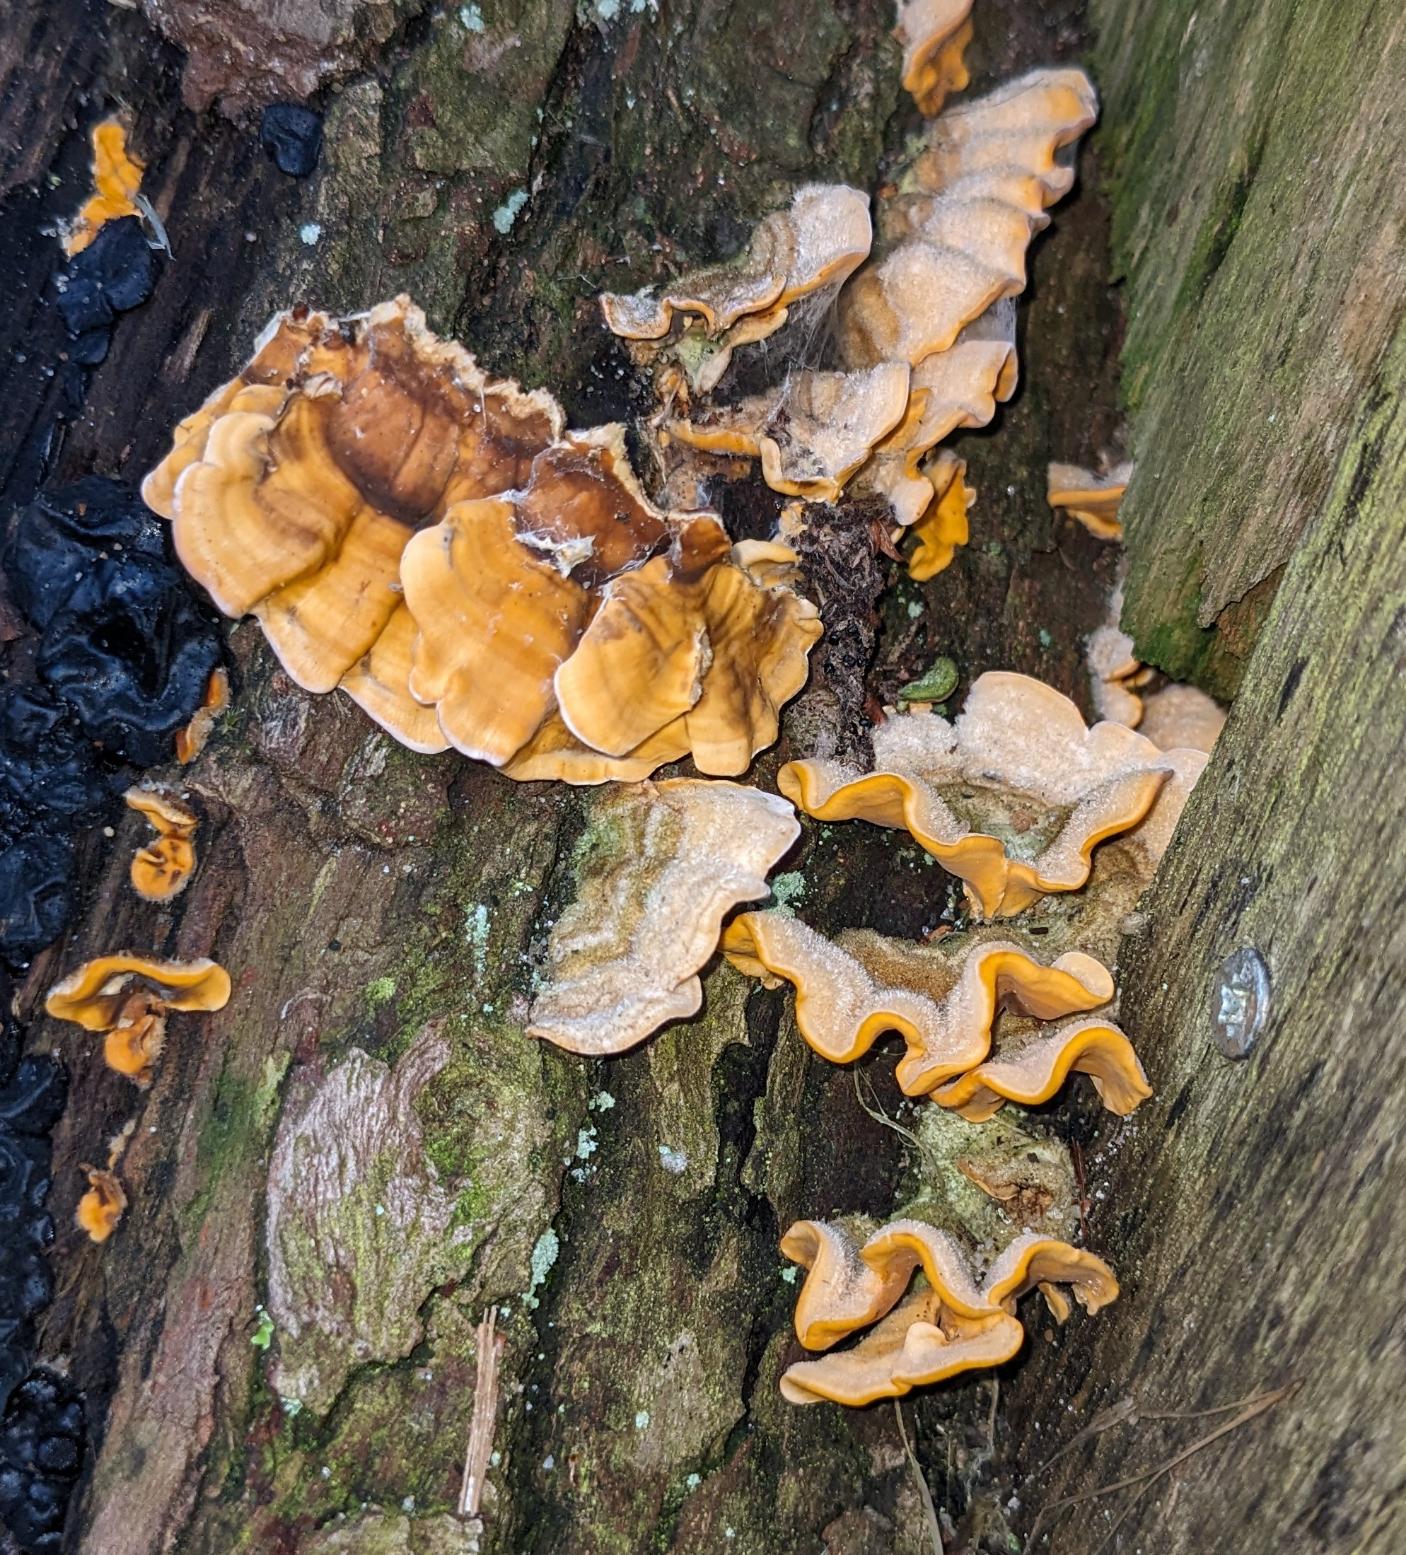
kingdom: Fungi
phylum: Basidiomycota
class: Agaricomycetes
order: Russulales
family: Stereaceae
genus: Stereum
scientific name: Stereum hirsutum
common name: Håret lædersvamp
